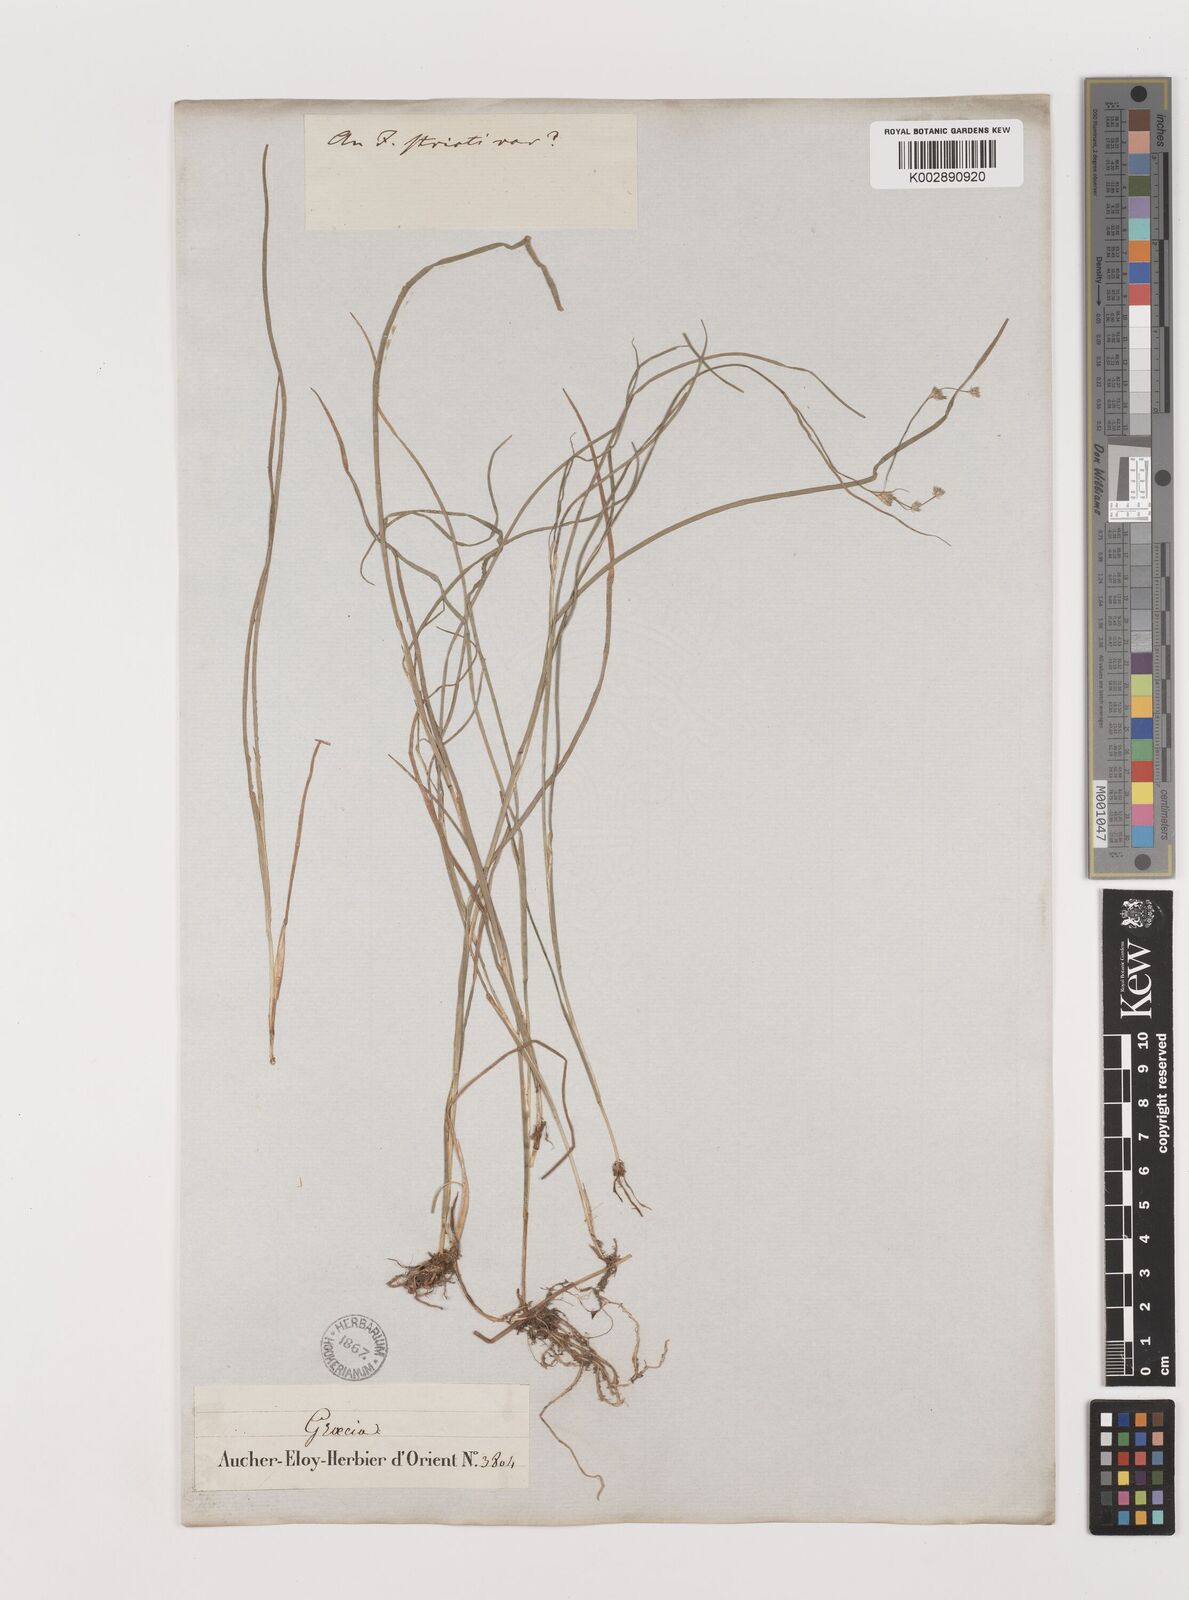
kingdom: Plantae
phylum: Tracheophyta
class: Liliopsida
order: Poales
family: Juncaceae
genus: Juncus
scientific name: Juncus
